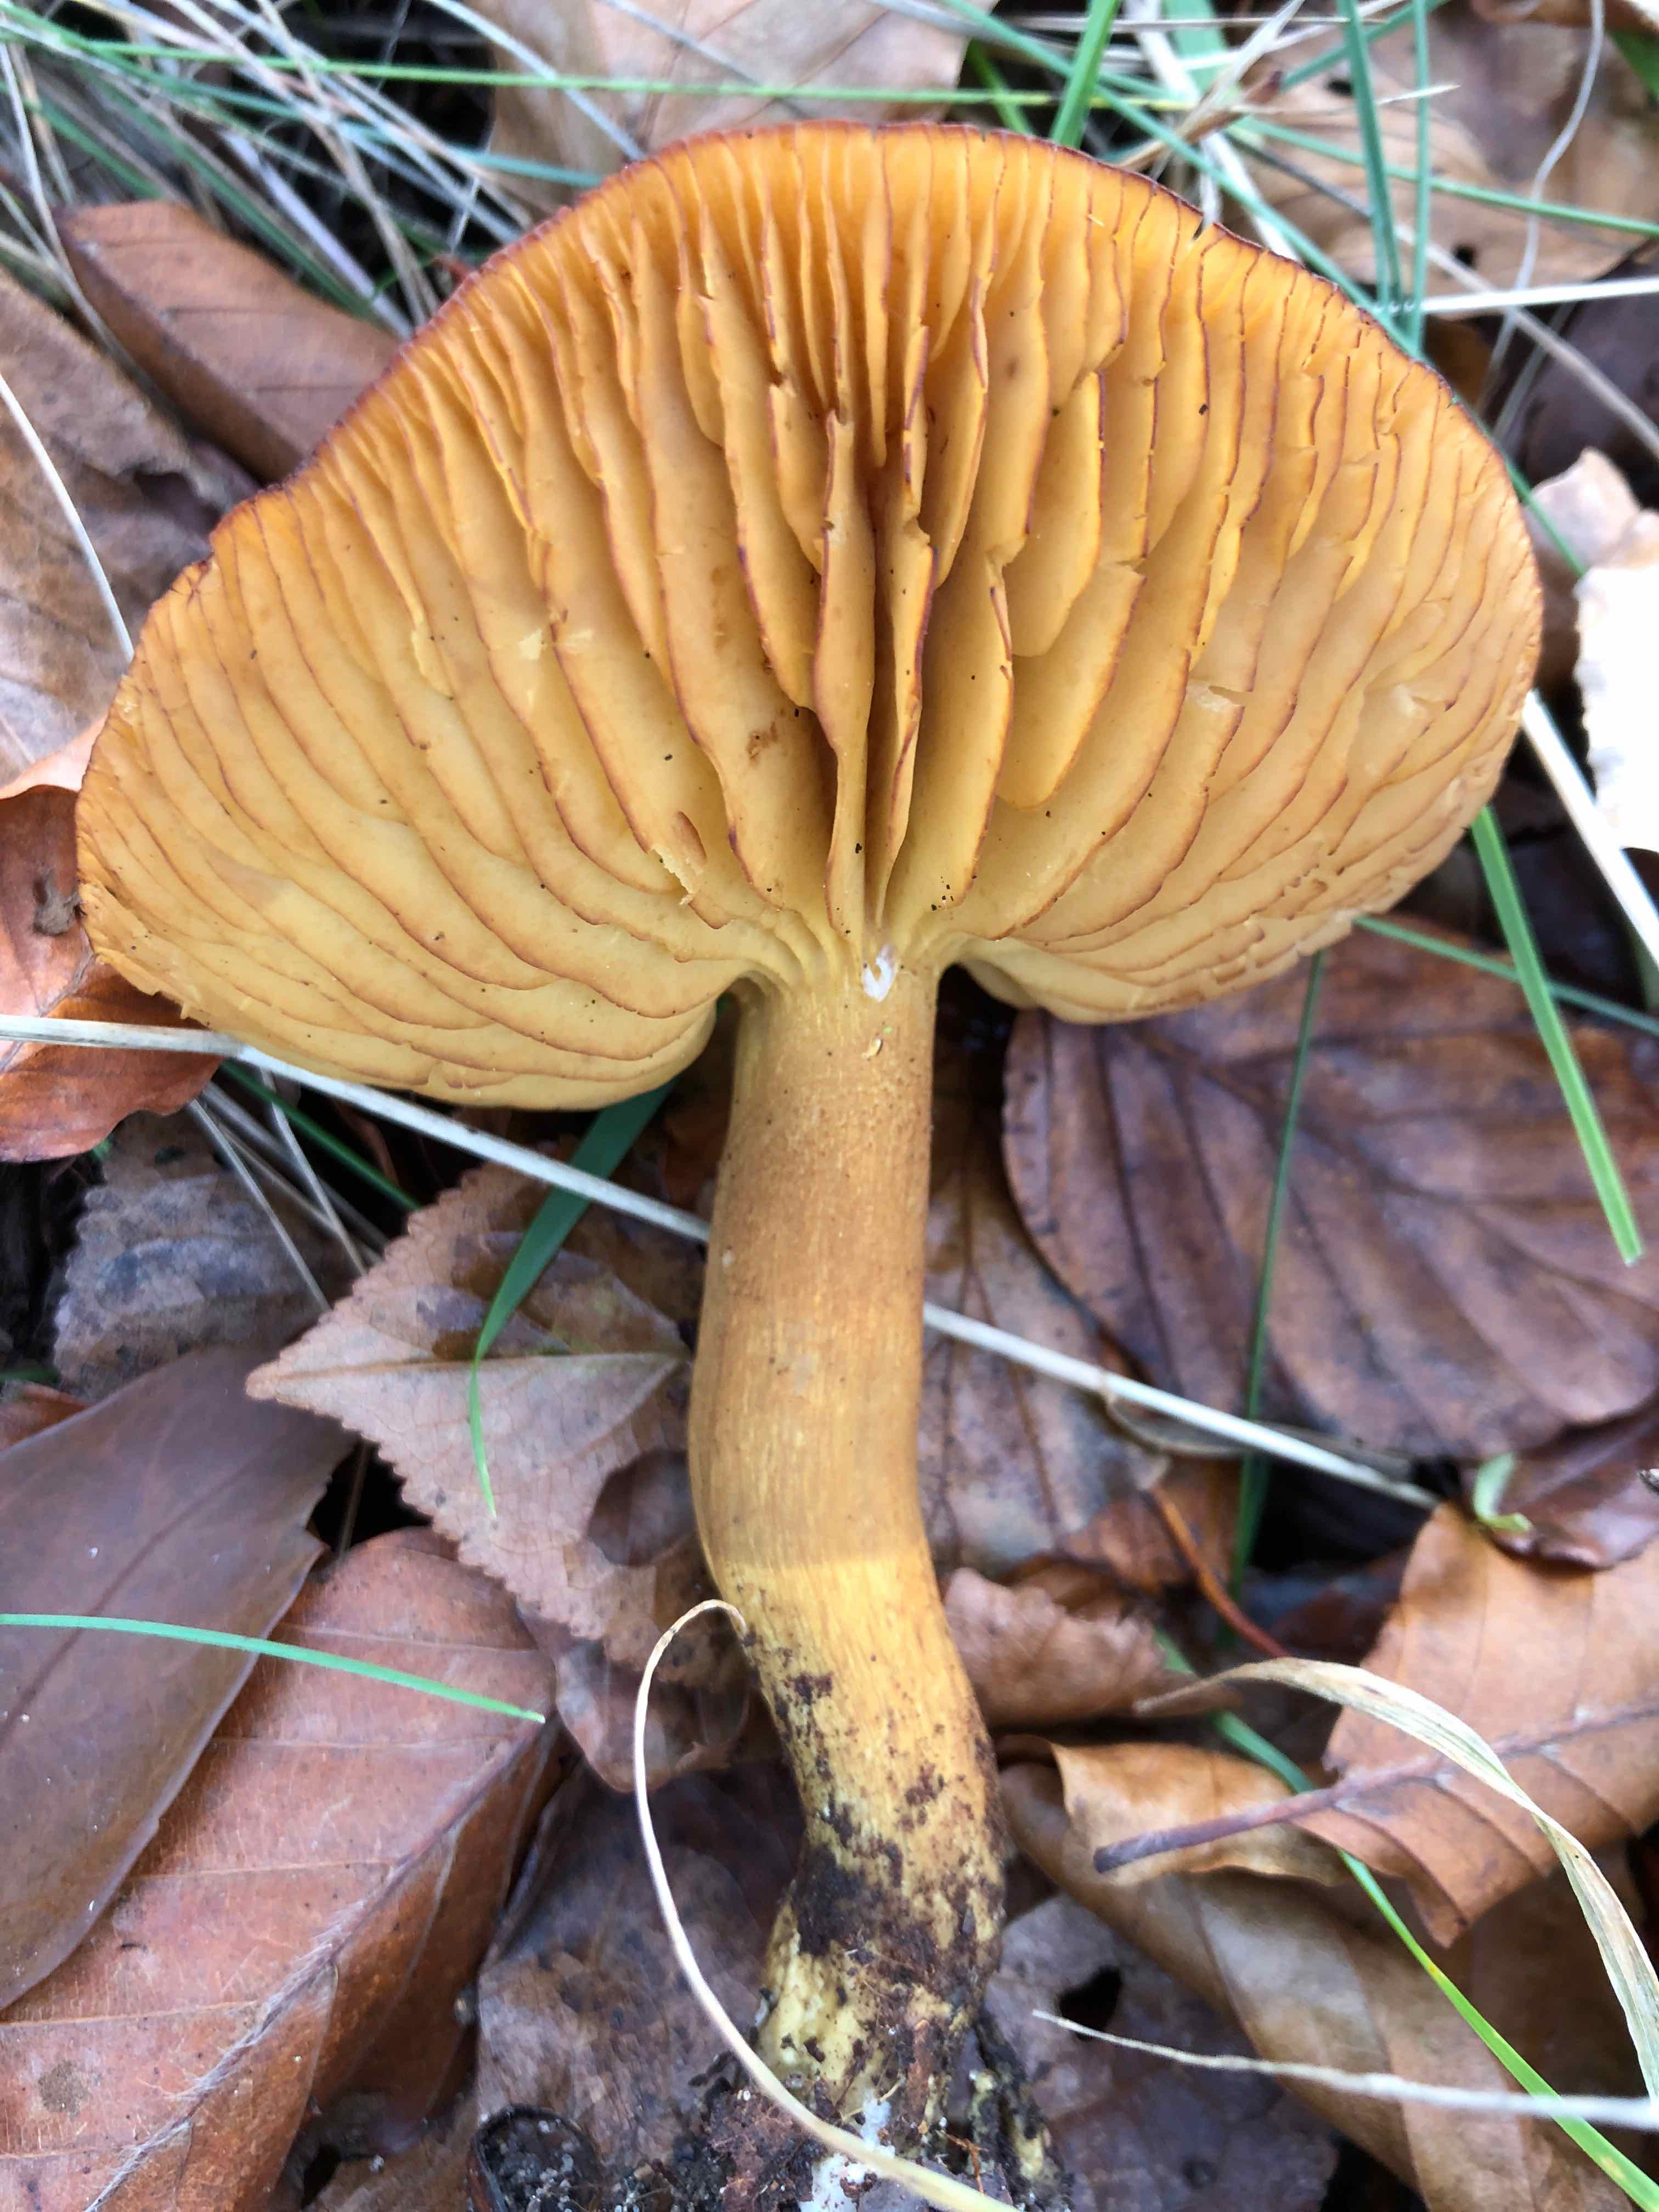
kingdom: Fungi
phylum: Basidiomycota
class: Agaricomycetes
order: Agaricales
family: Tricholomataceae
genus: Tricholoma
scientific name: Tricholoma sulphureum
